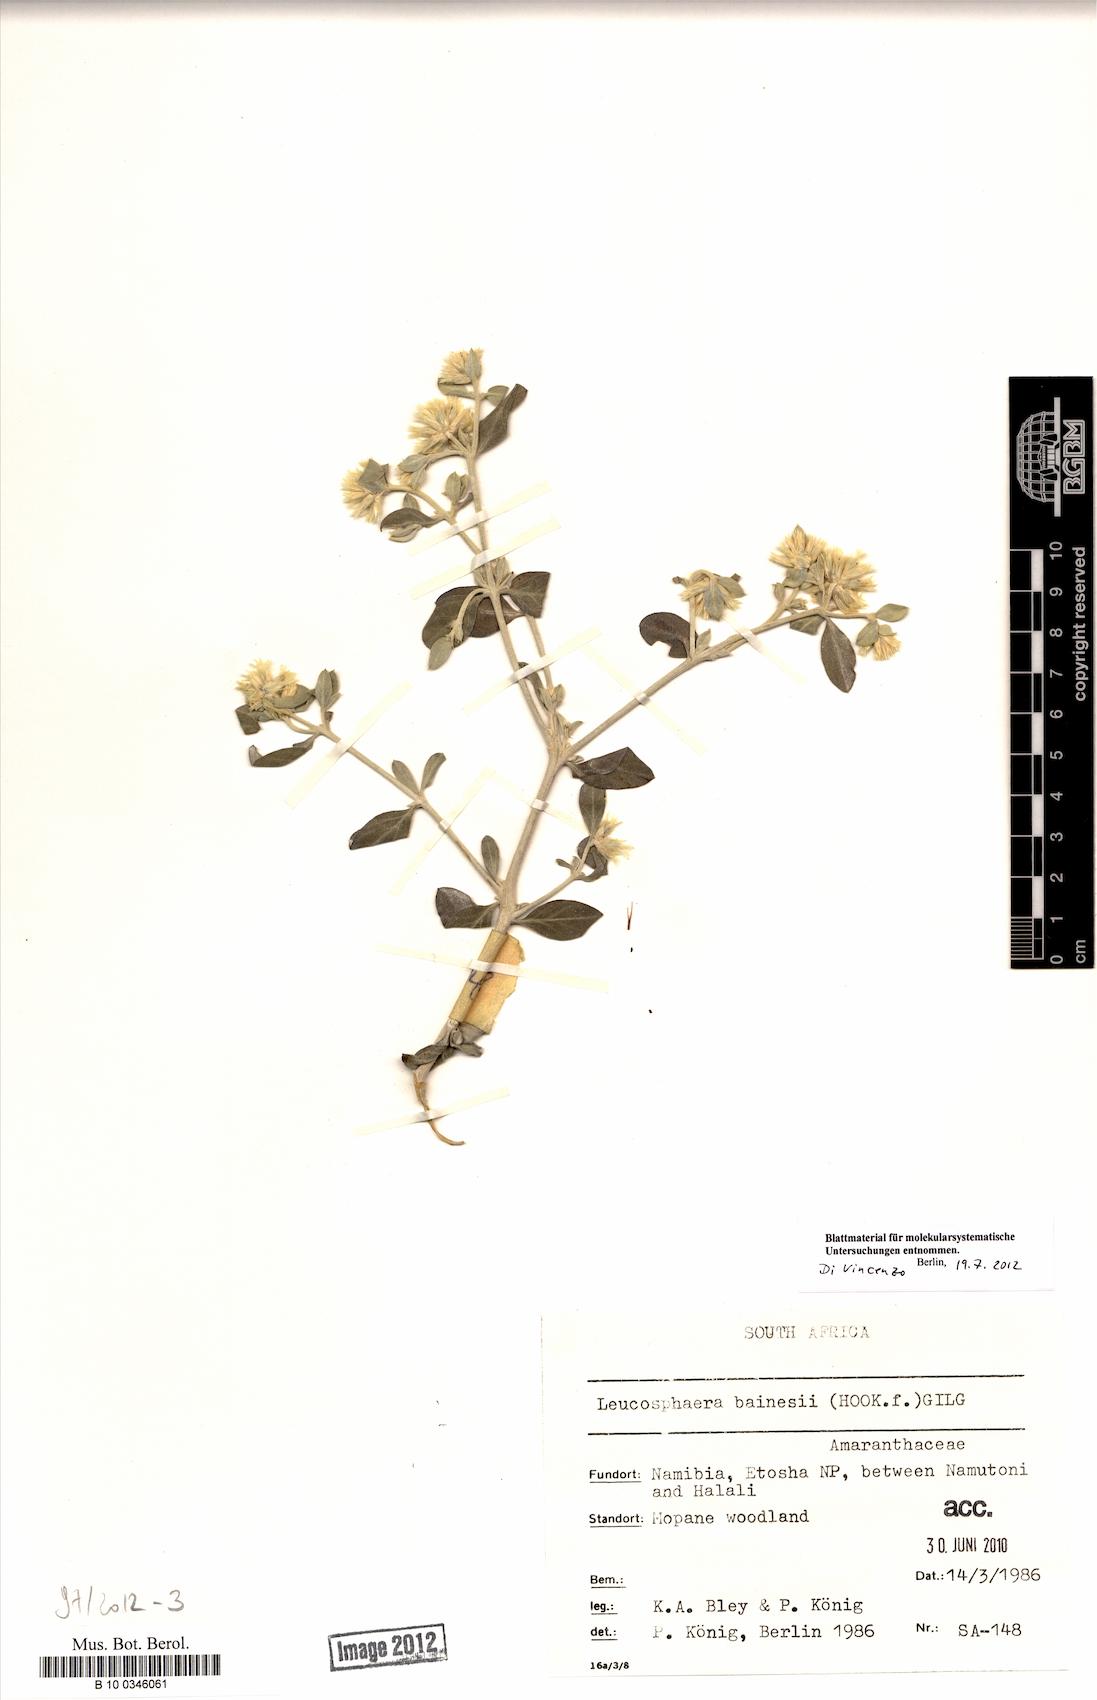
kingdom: Plantae
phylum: Tracheophyta
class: Magnoliopsida
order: Caryophyllales
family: Amaranthaceae
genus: Leucosphaera
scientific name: Leucosphaera bainesii
